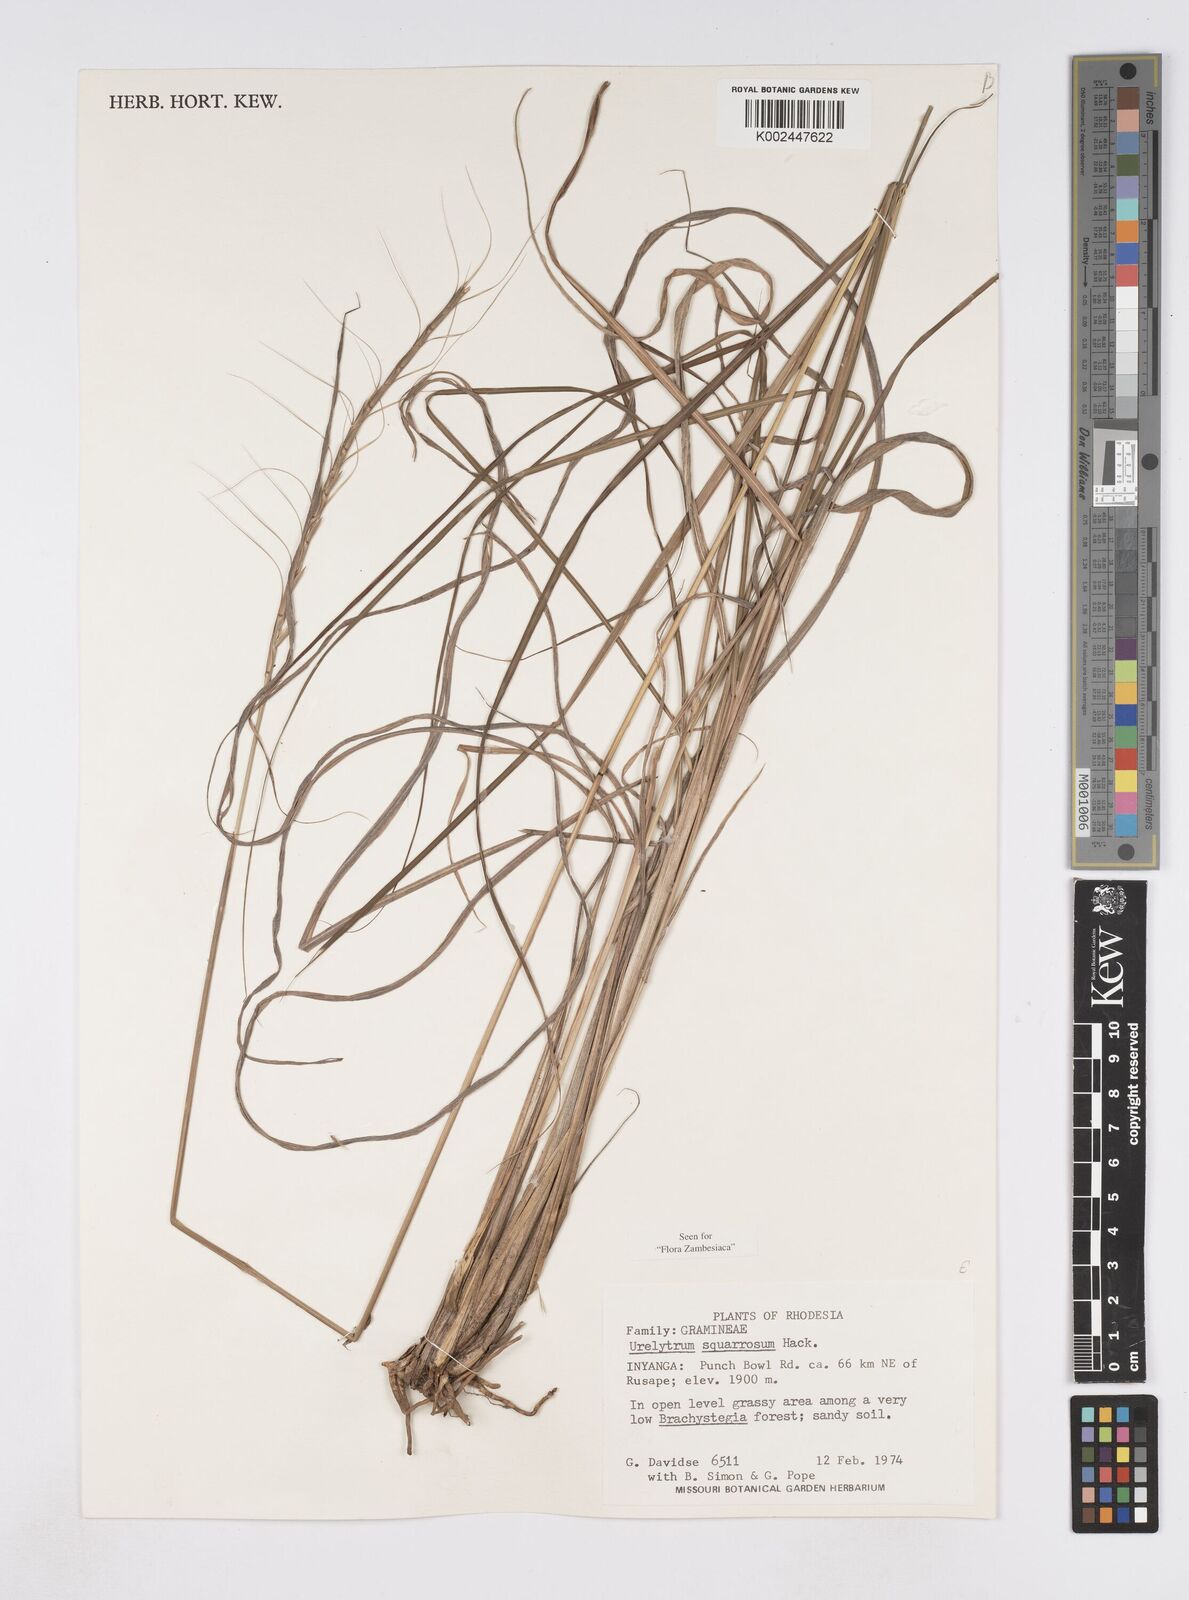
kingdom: Plantae
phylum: Tracheophyta
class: Liliopsida
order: Poales
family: Poaceae
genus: Urelytrum
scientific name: Urelytrum agropyroides
